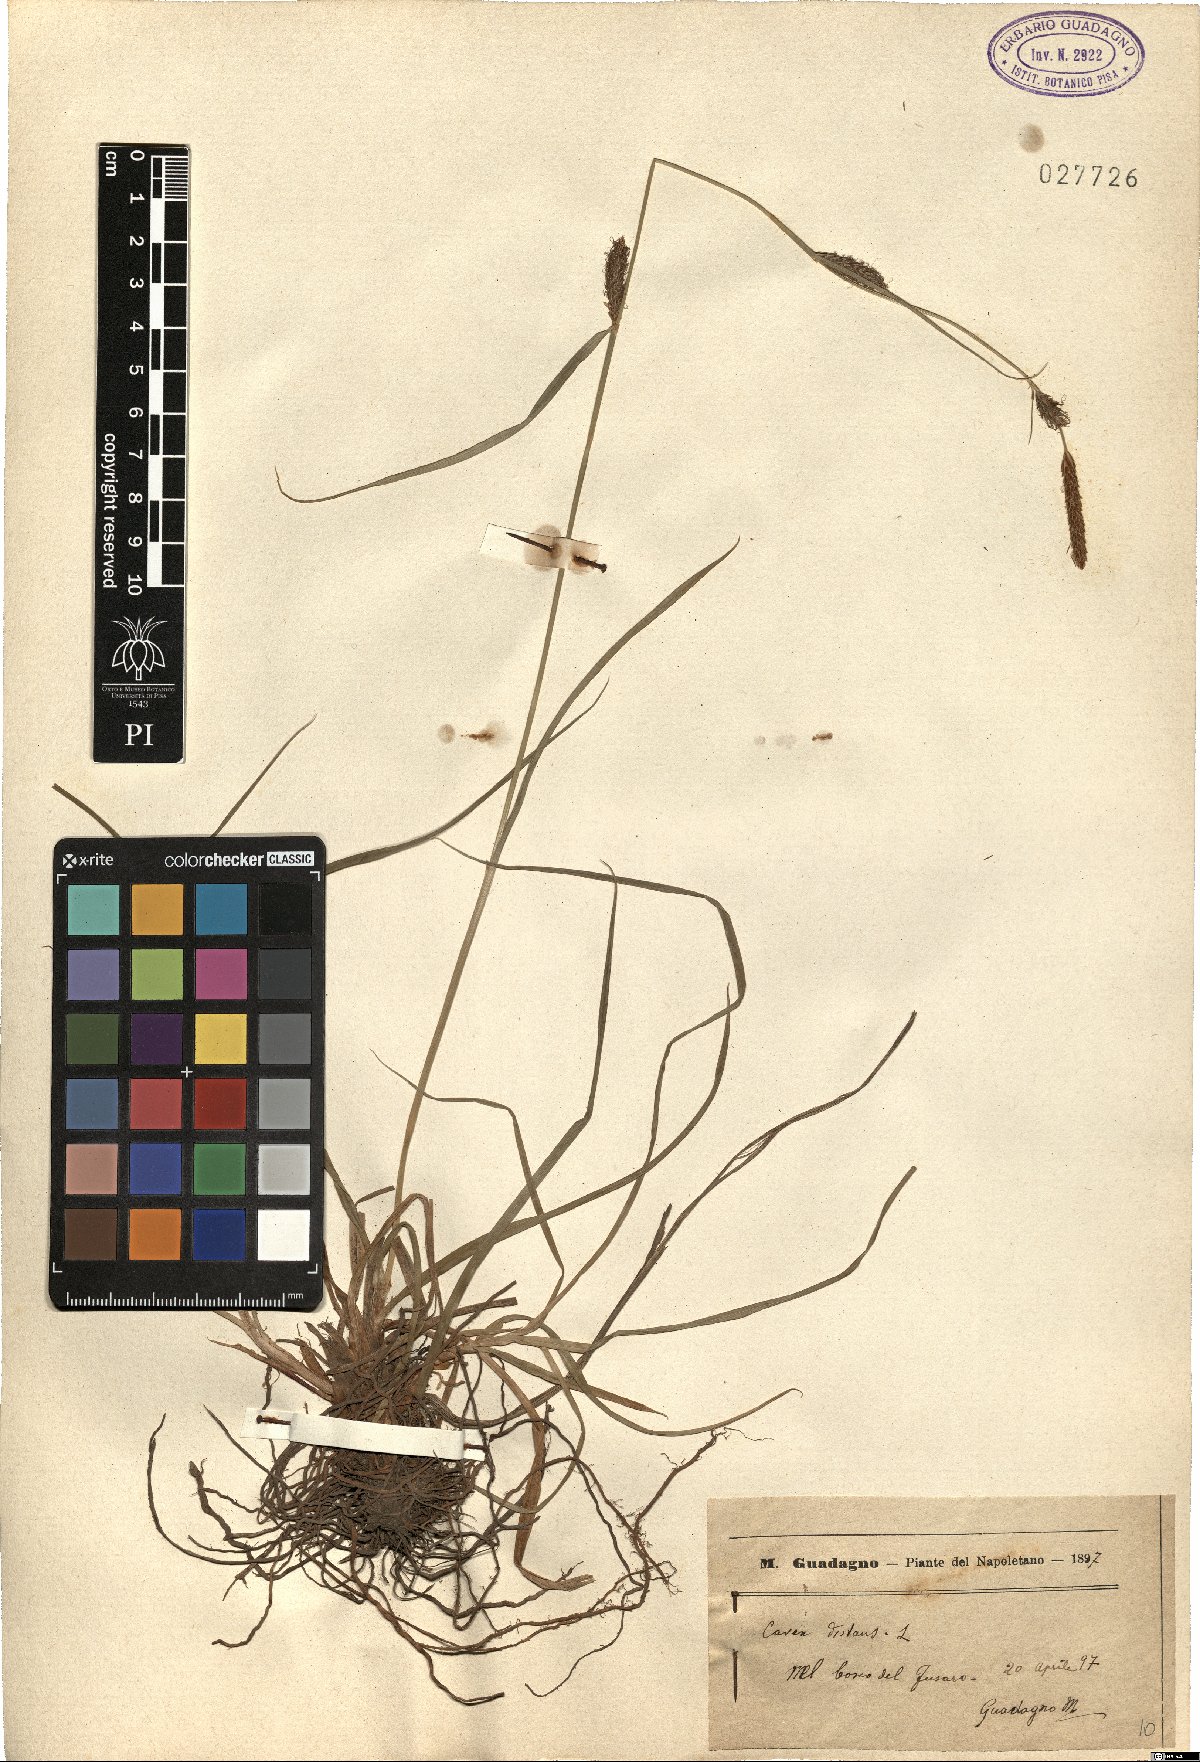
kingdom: Plantae
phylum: Tracheophyta
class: Liliopsida
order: Poales
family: Cyperaceae
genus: Carex
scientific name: Carex distans
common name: Distant sedge
